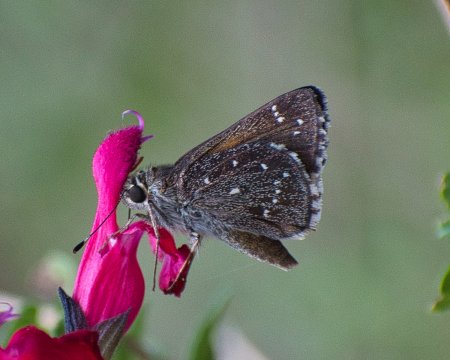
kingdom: Animalia
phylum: Arthropoda
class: Insecta
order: Lepidoptera
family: Hesperiidae
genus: Mastor
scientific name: Mastor exoteria
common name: Large Roadside-Skipper
